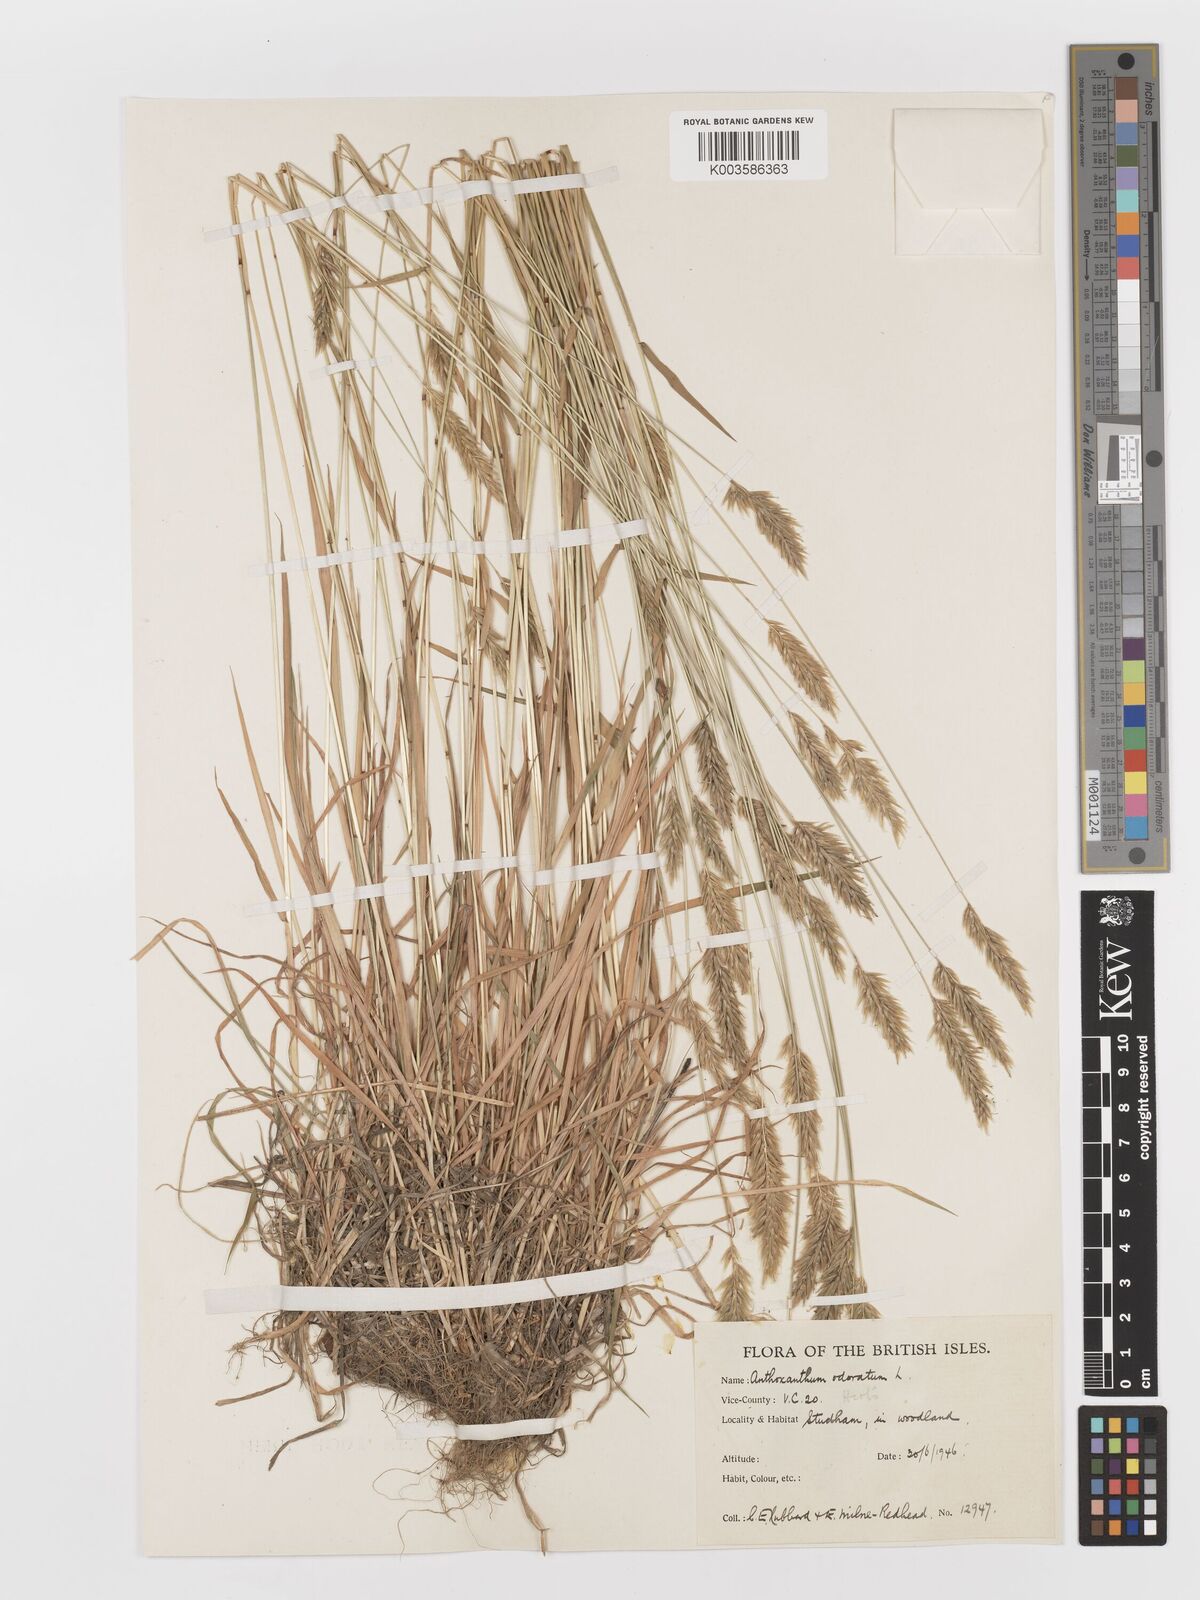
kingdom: Plantae
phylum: Tracheophyta
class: Liliopsida
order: Poales
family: Poaceae
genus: Anthoxanthum
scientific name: Anthoxanthum odoratum
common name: Sweet vernalgrass
